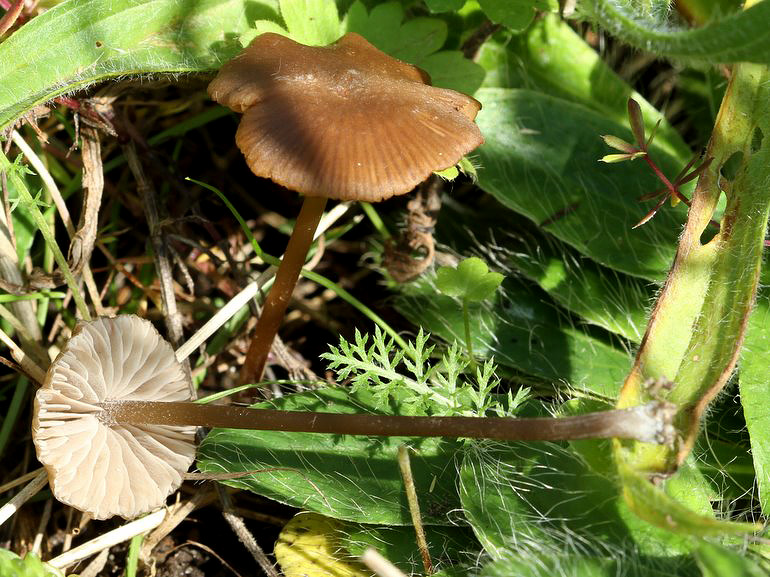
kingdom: Fungi
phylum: Basidiomycota
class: Agaricomycetes
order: Agaricales
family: Entolomataceae
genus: Entoloma
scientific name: Entoloma clandestinum
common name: tykbladet rødblad
